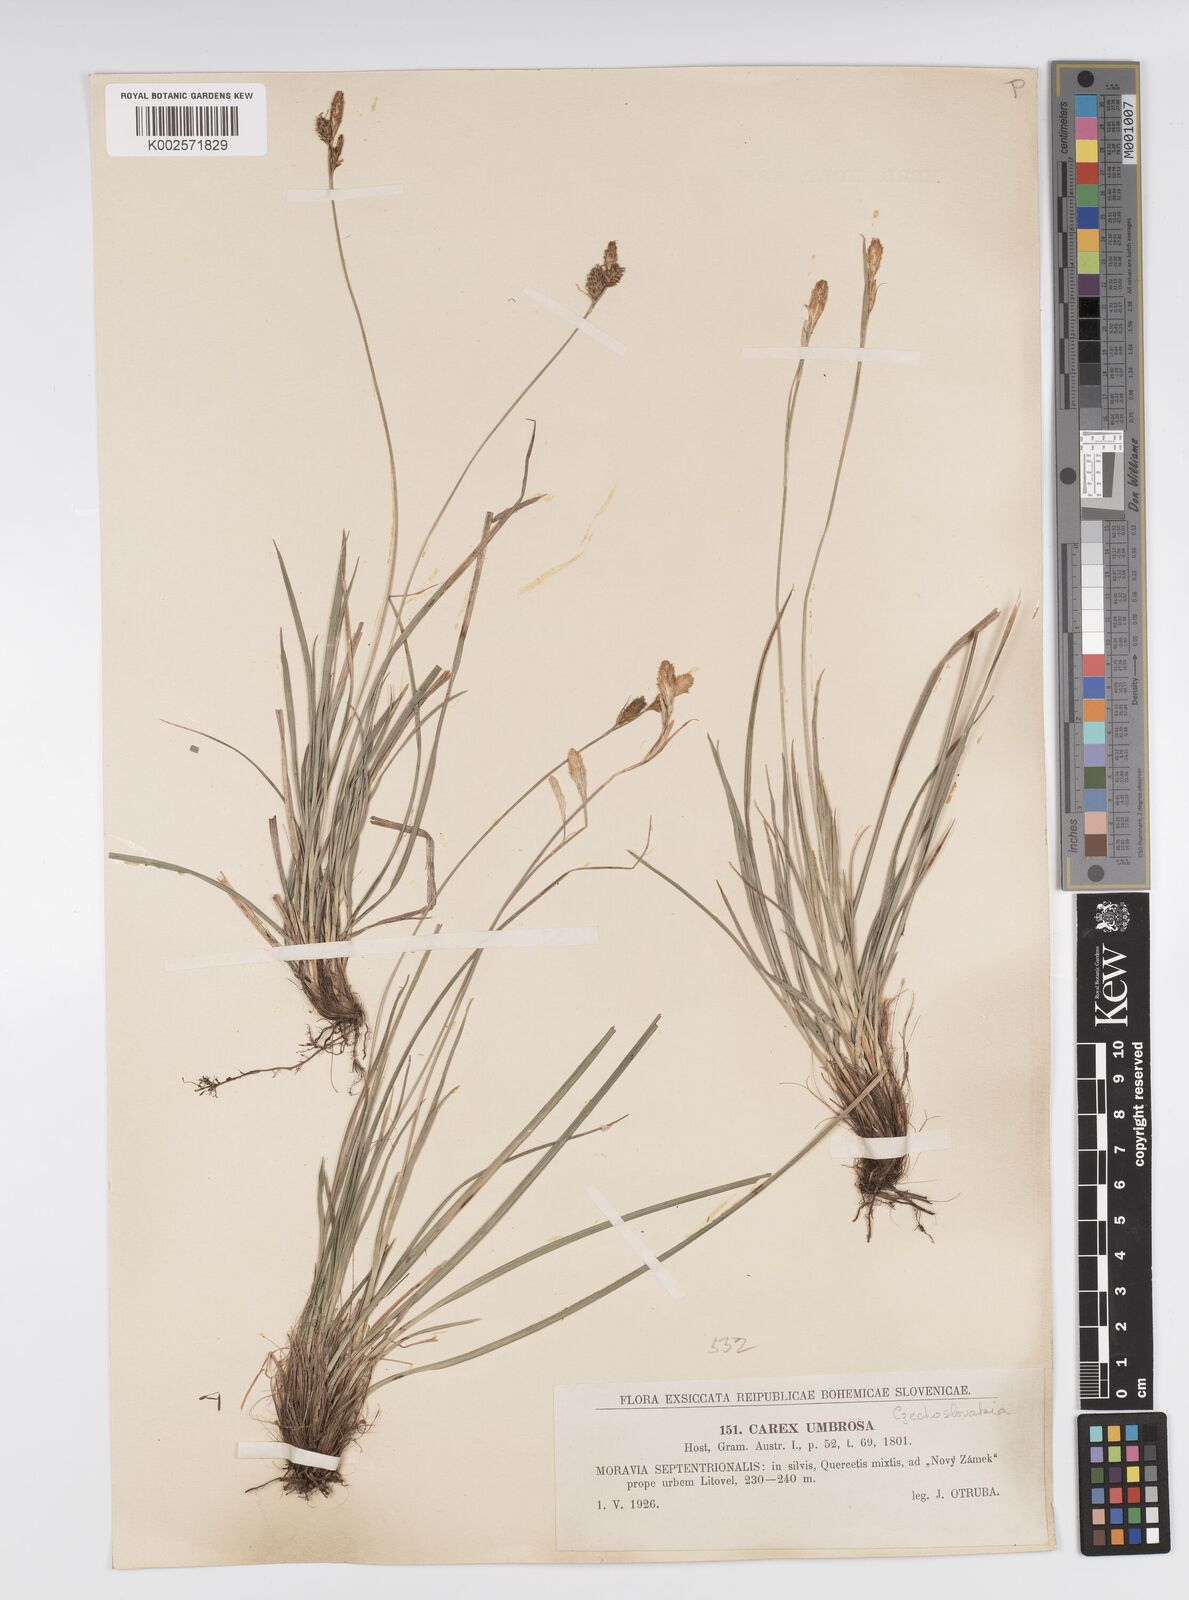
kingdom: Plantae
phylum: Tracheophyta
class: Liliopsida
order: Poales
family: Cyperaceae
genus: Carex
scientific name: Carex umbrosa
